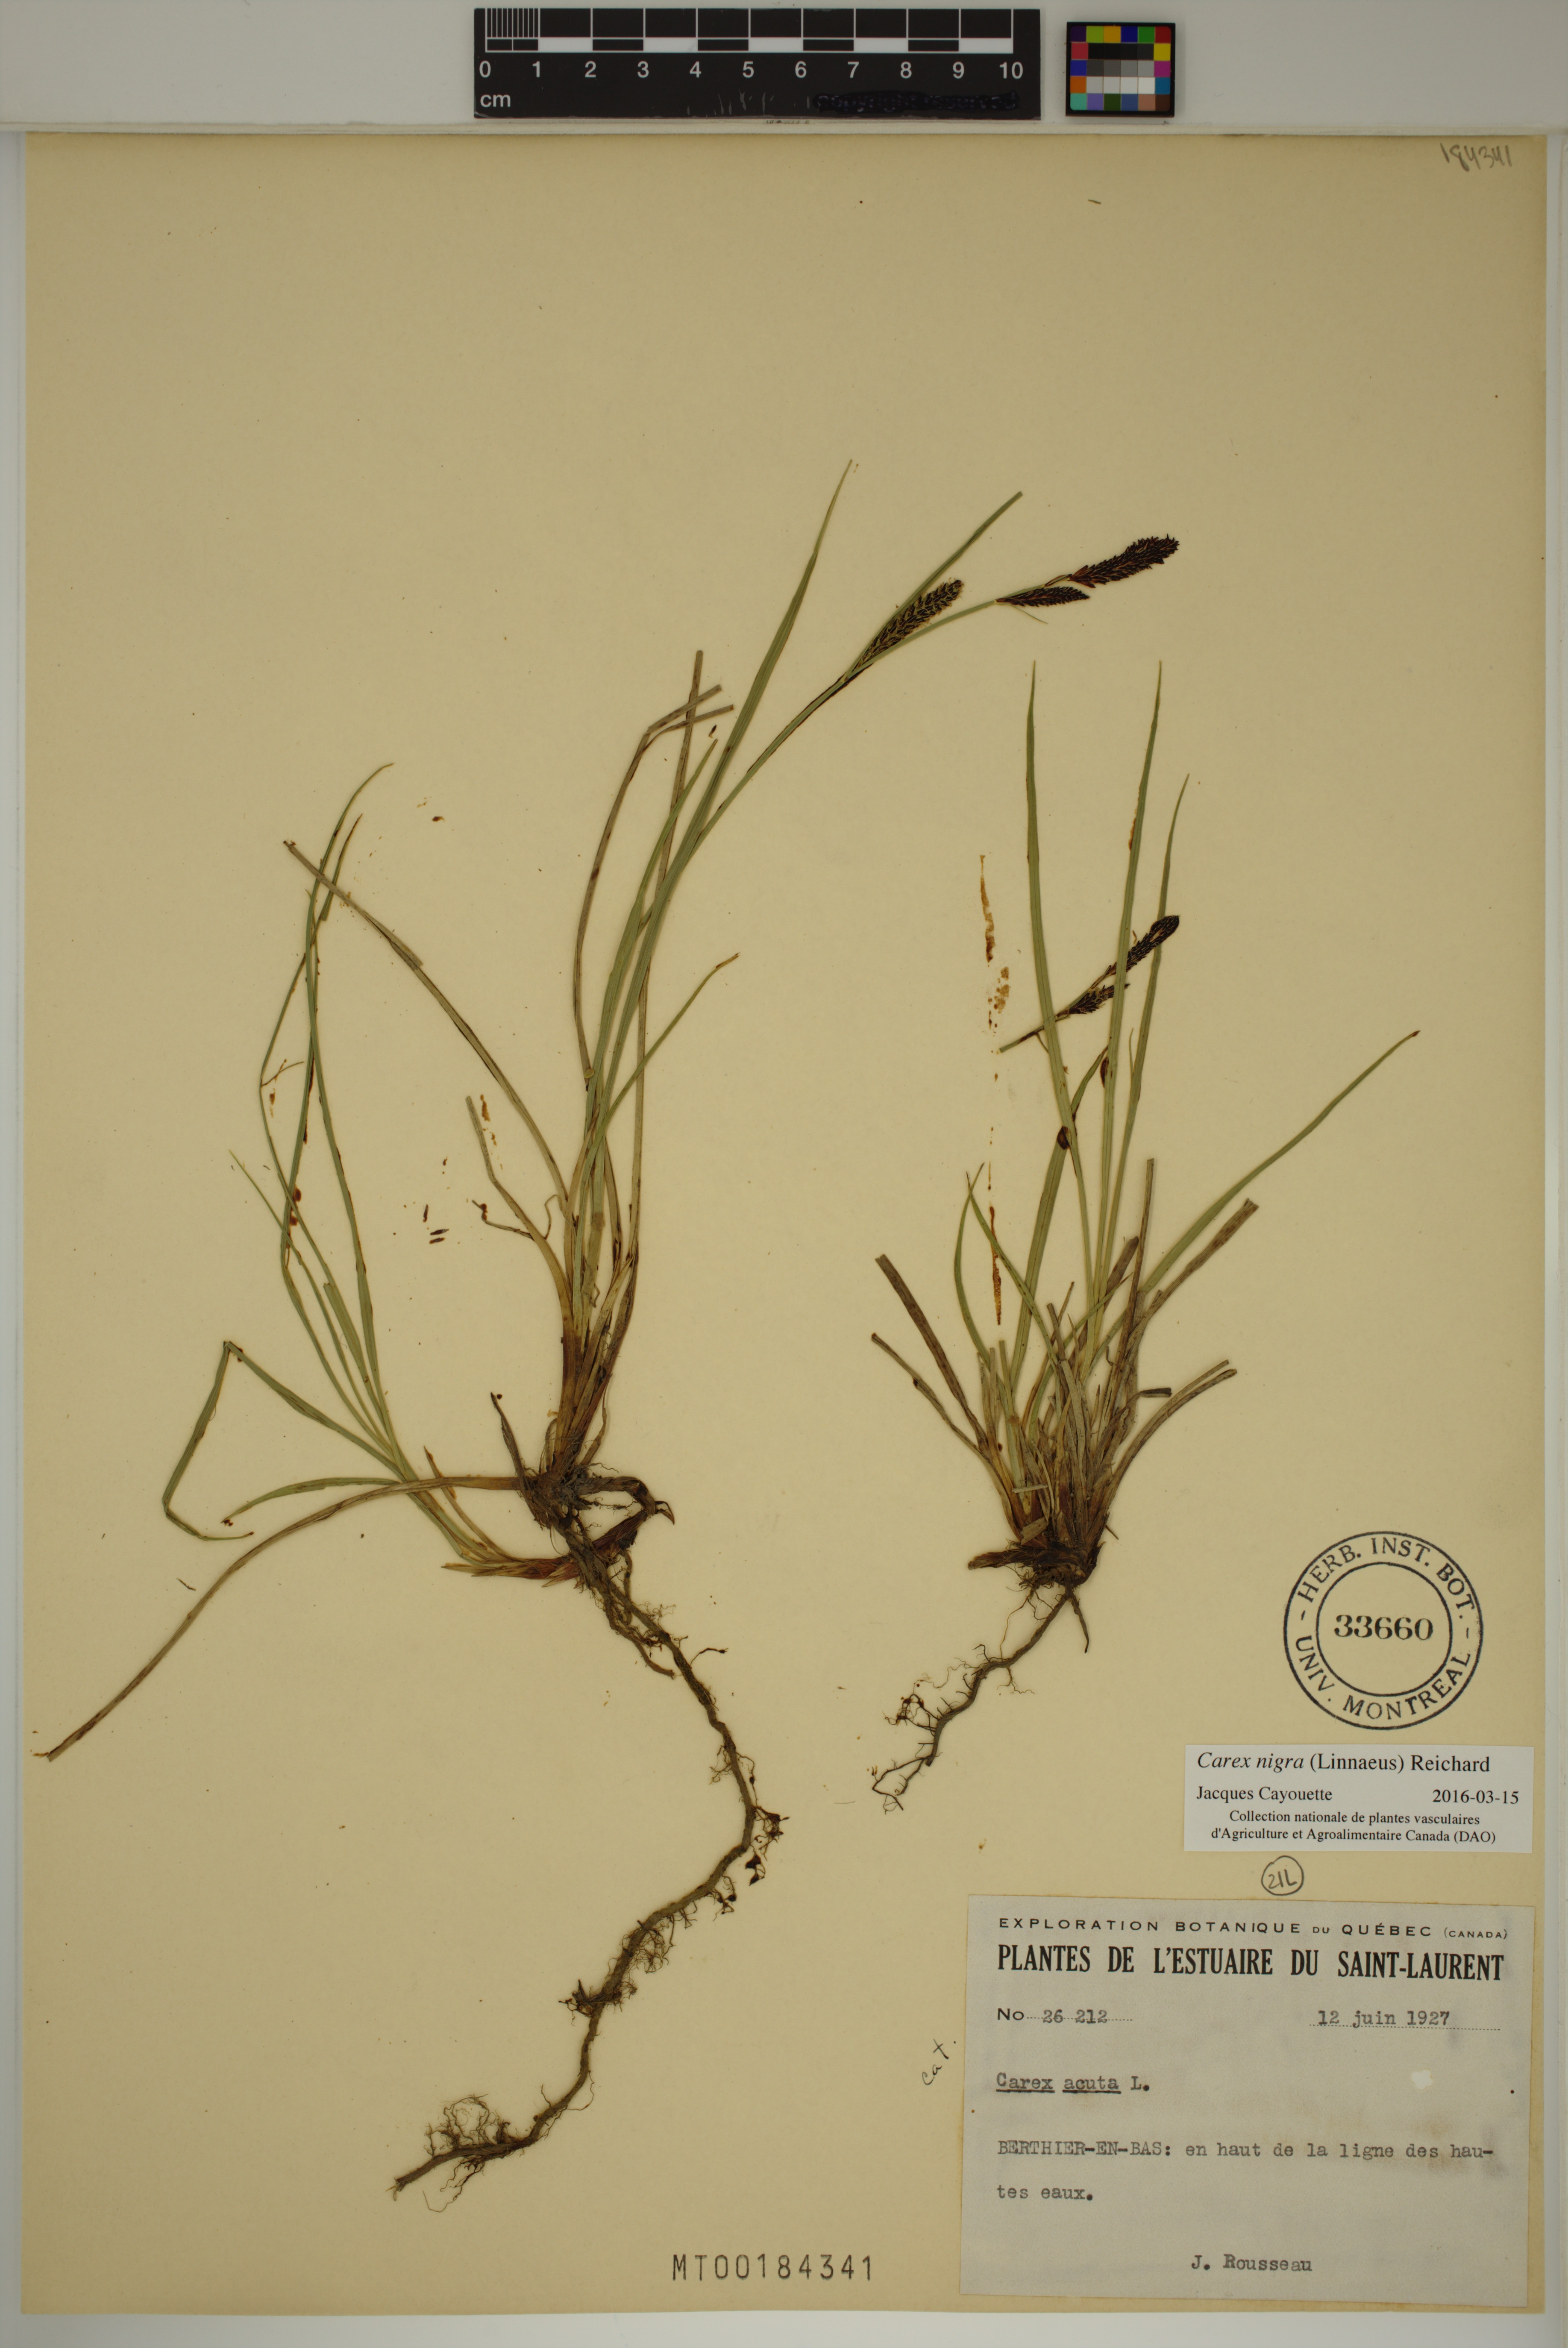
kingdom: Plantae
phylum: Tracheophyta
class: Liliopsida
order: Poales
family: Cyperaceae
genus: Carex
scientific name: Carex nigra
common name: Common sedge
